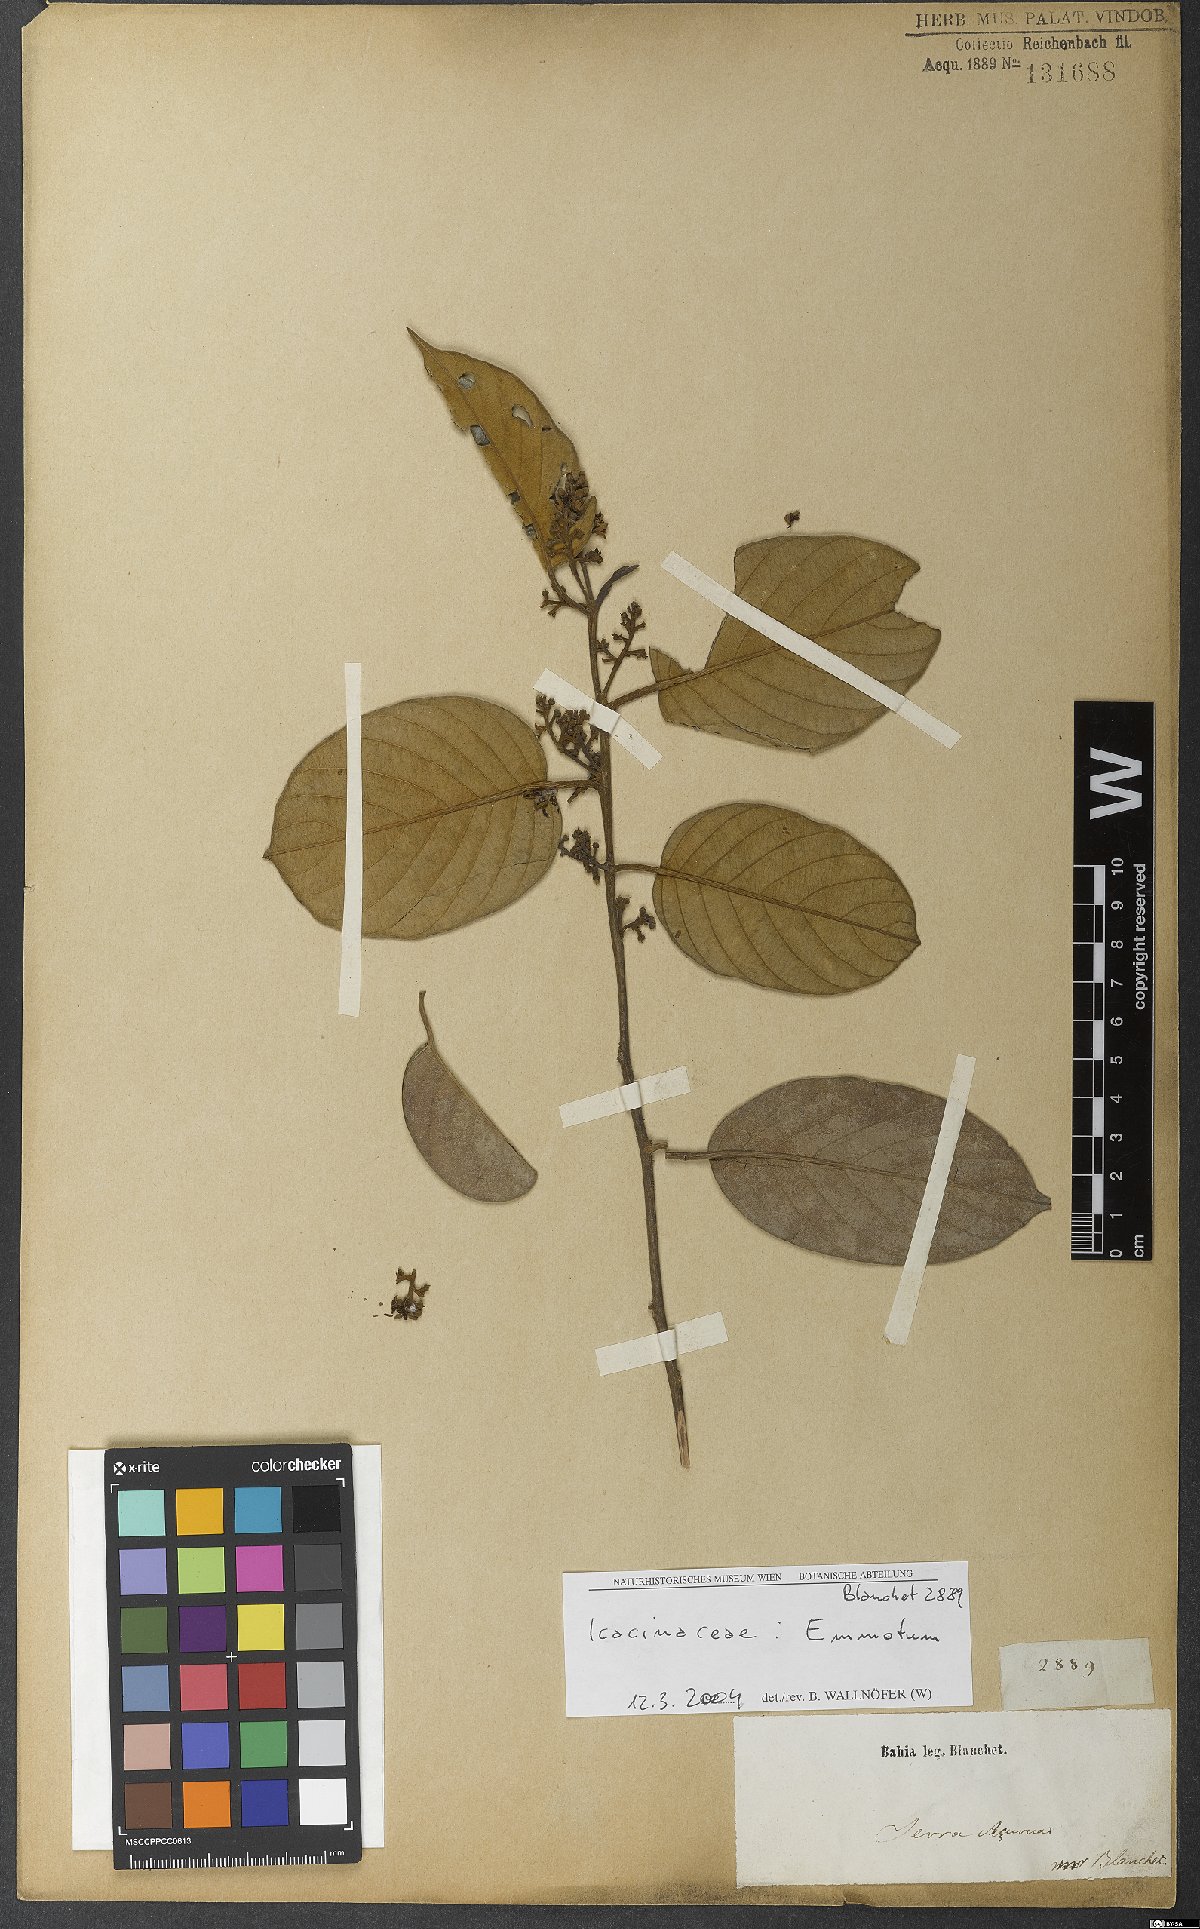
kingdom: Plantae
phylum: Tracheophyta
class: Magnoliopsida
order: Icacinales
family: Icacinaceae
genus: Emmotum
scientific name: Emmotum
